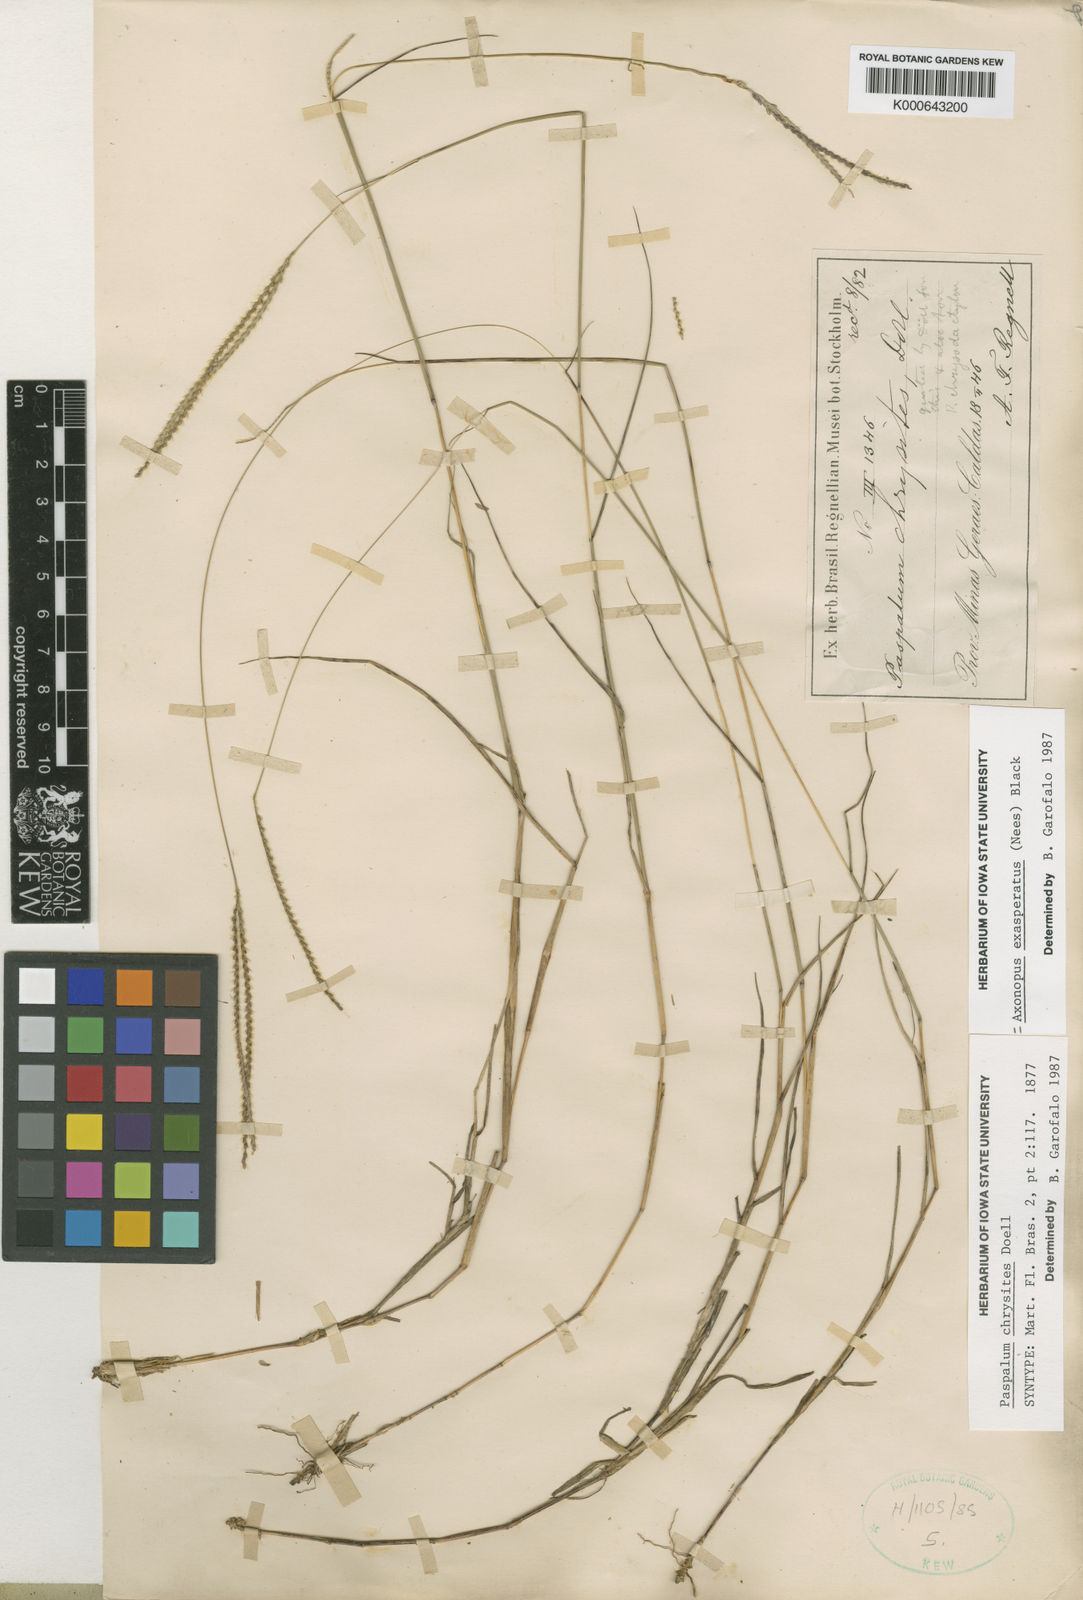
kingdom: Plantae
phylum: Tracheophyta
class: Liliopsida
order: Poales
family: Poaceae
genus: Axonopus
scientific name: Axonopus aureus
